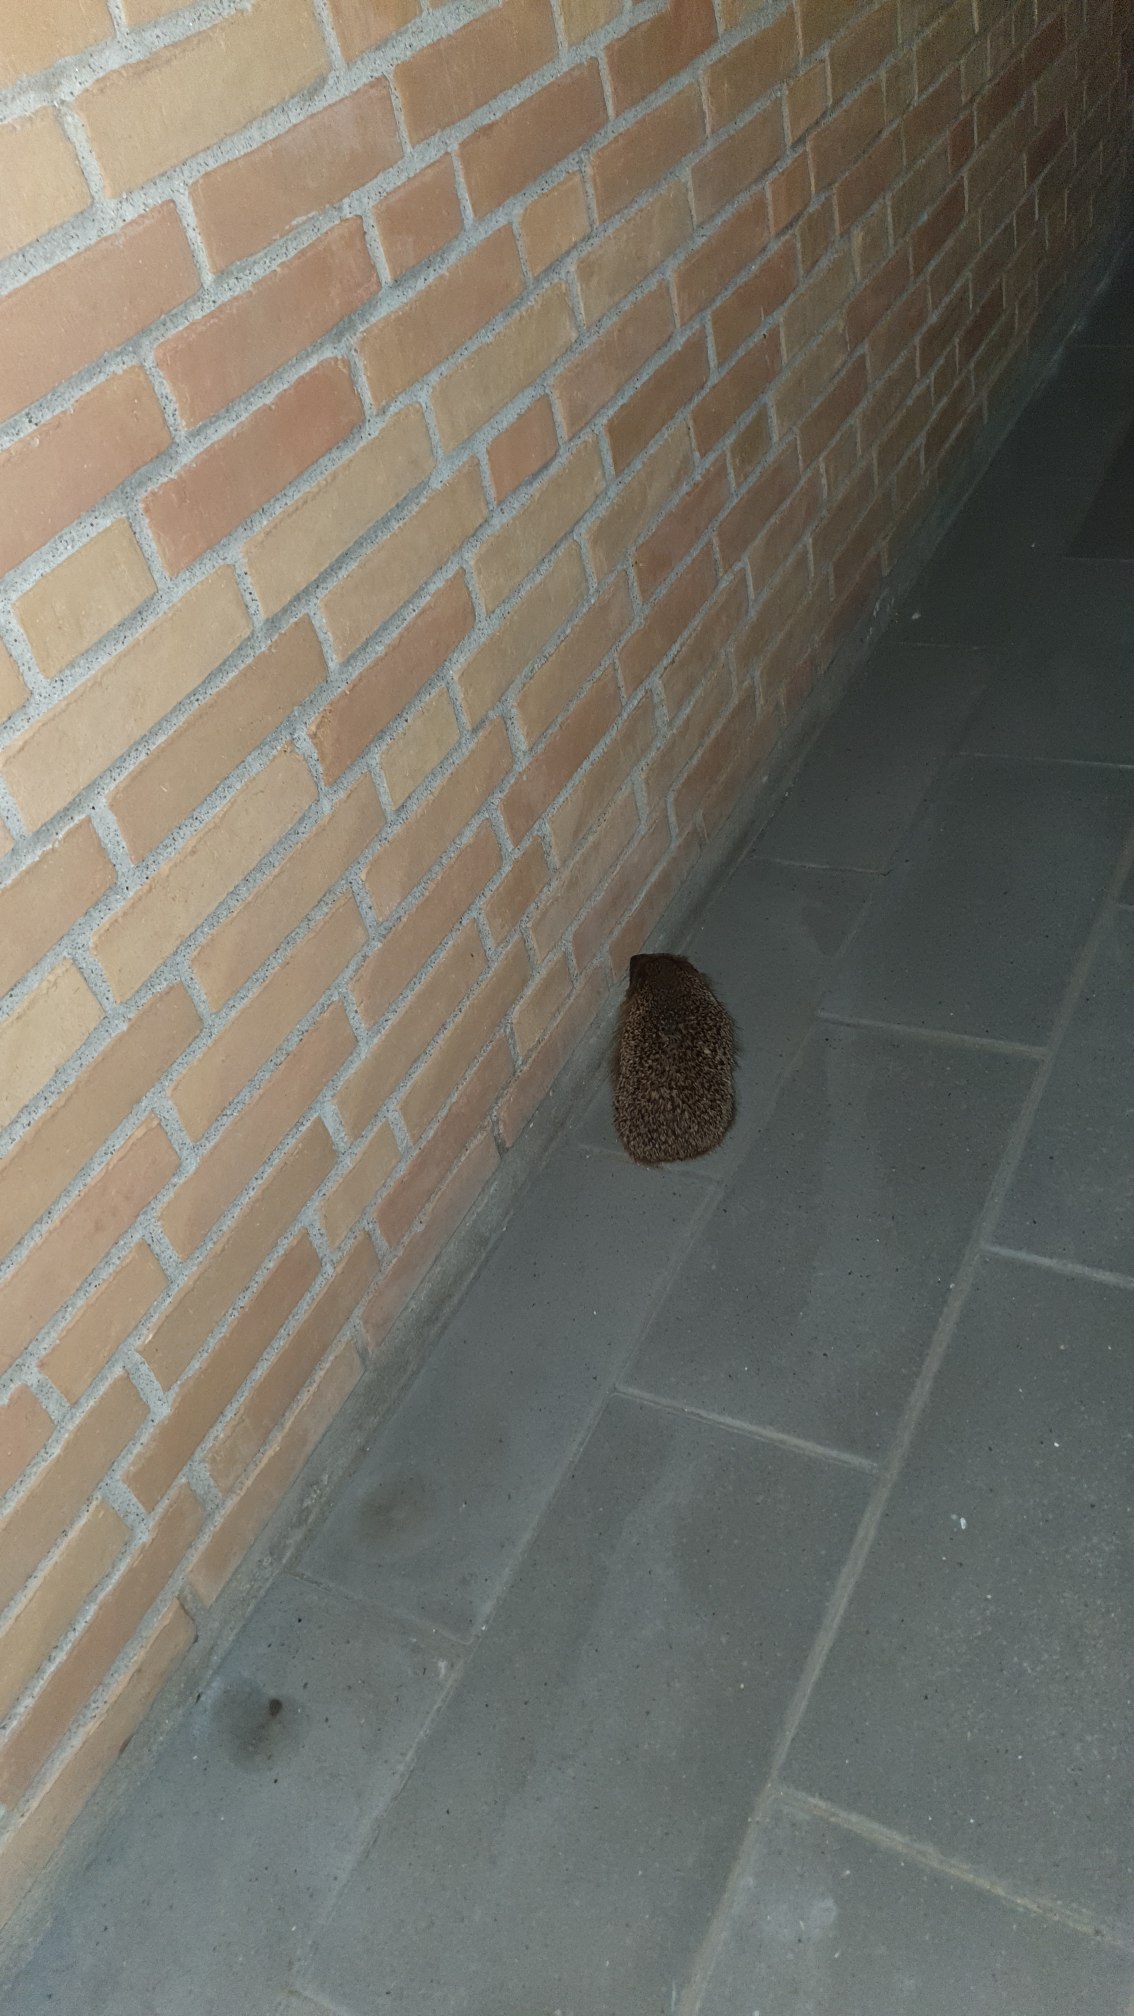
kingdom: Animalia
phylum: Chordata
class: Mammalia
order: Erinaceomorpha
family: Erinaceidae
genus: Erinaceus
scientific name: Erinaceus europaeus
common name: Pindsvin
